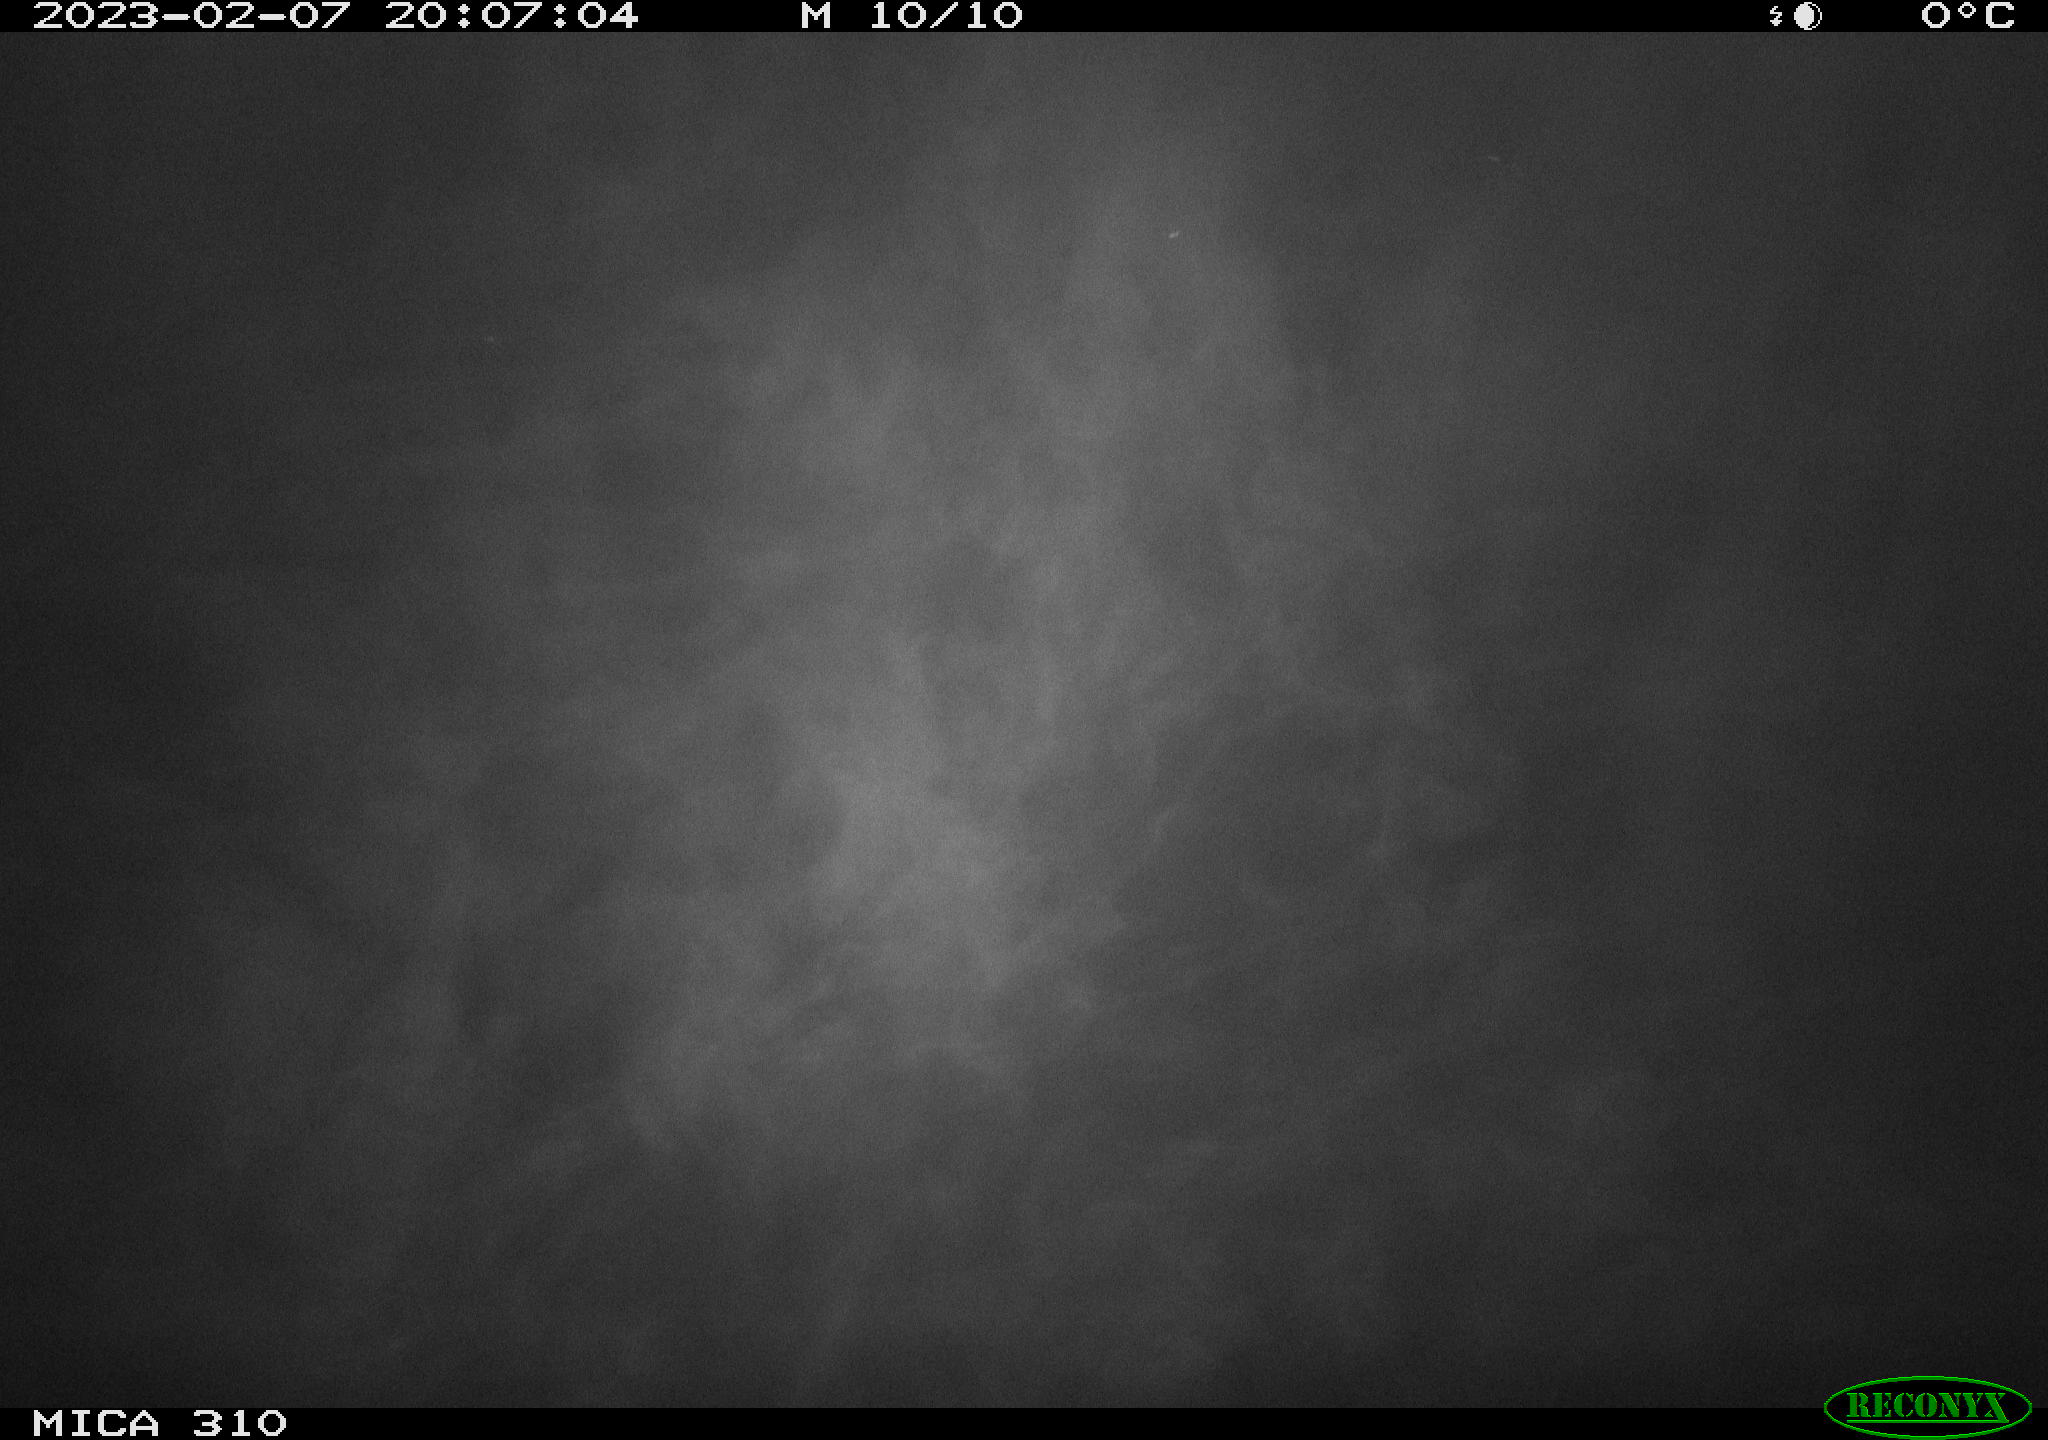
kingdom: Animalia
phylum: Chordata
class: Mammalia
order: Rodentia
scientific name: Rodentia
